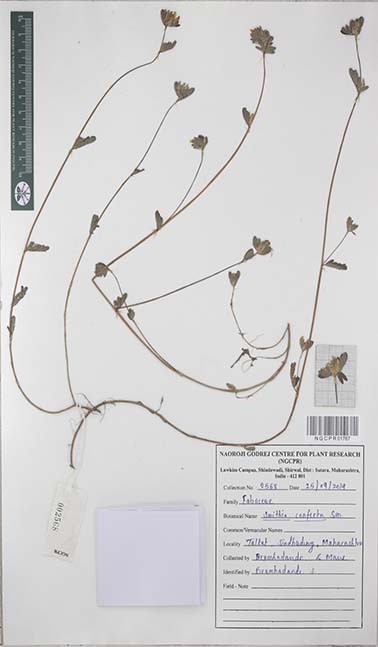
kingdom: Plantae
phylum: Tracheophyta
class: Magnoliopsida
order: Fabales
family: Fabaceae
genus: Smithia
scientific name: Smithia conferta
